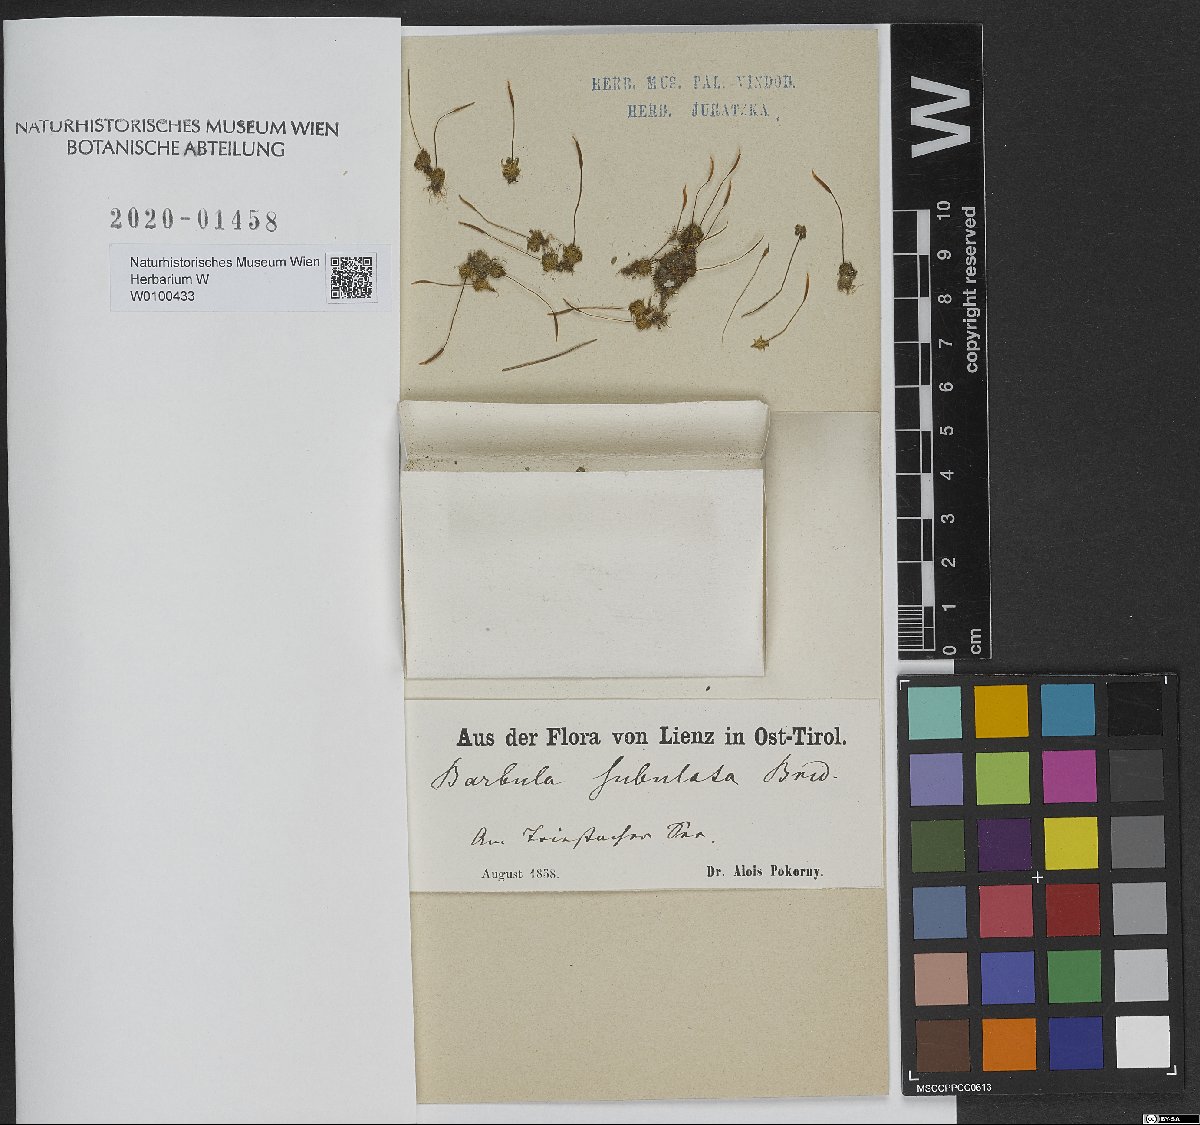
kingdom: Plantae
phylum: Bryophyta
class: Bryopsida
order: Pottiales
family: Pottiaceae
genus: Tortula
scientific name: Tortula subulata
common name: Upright screw-moss
